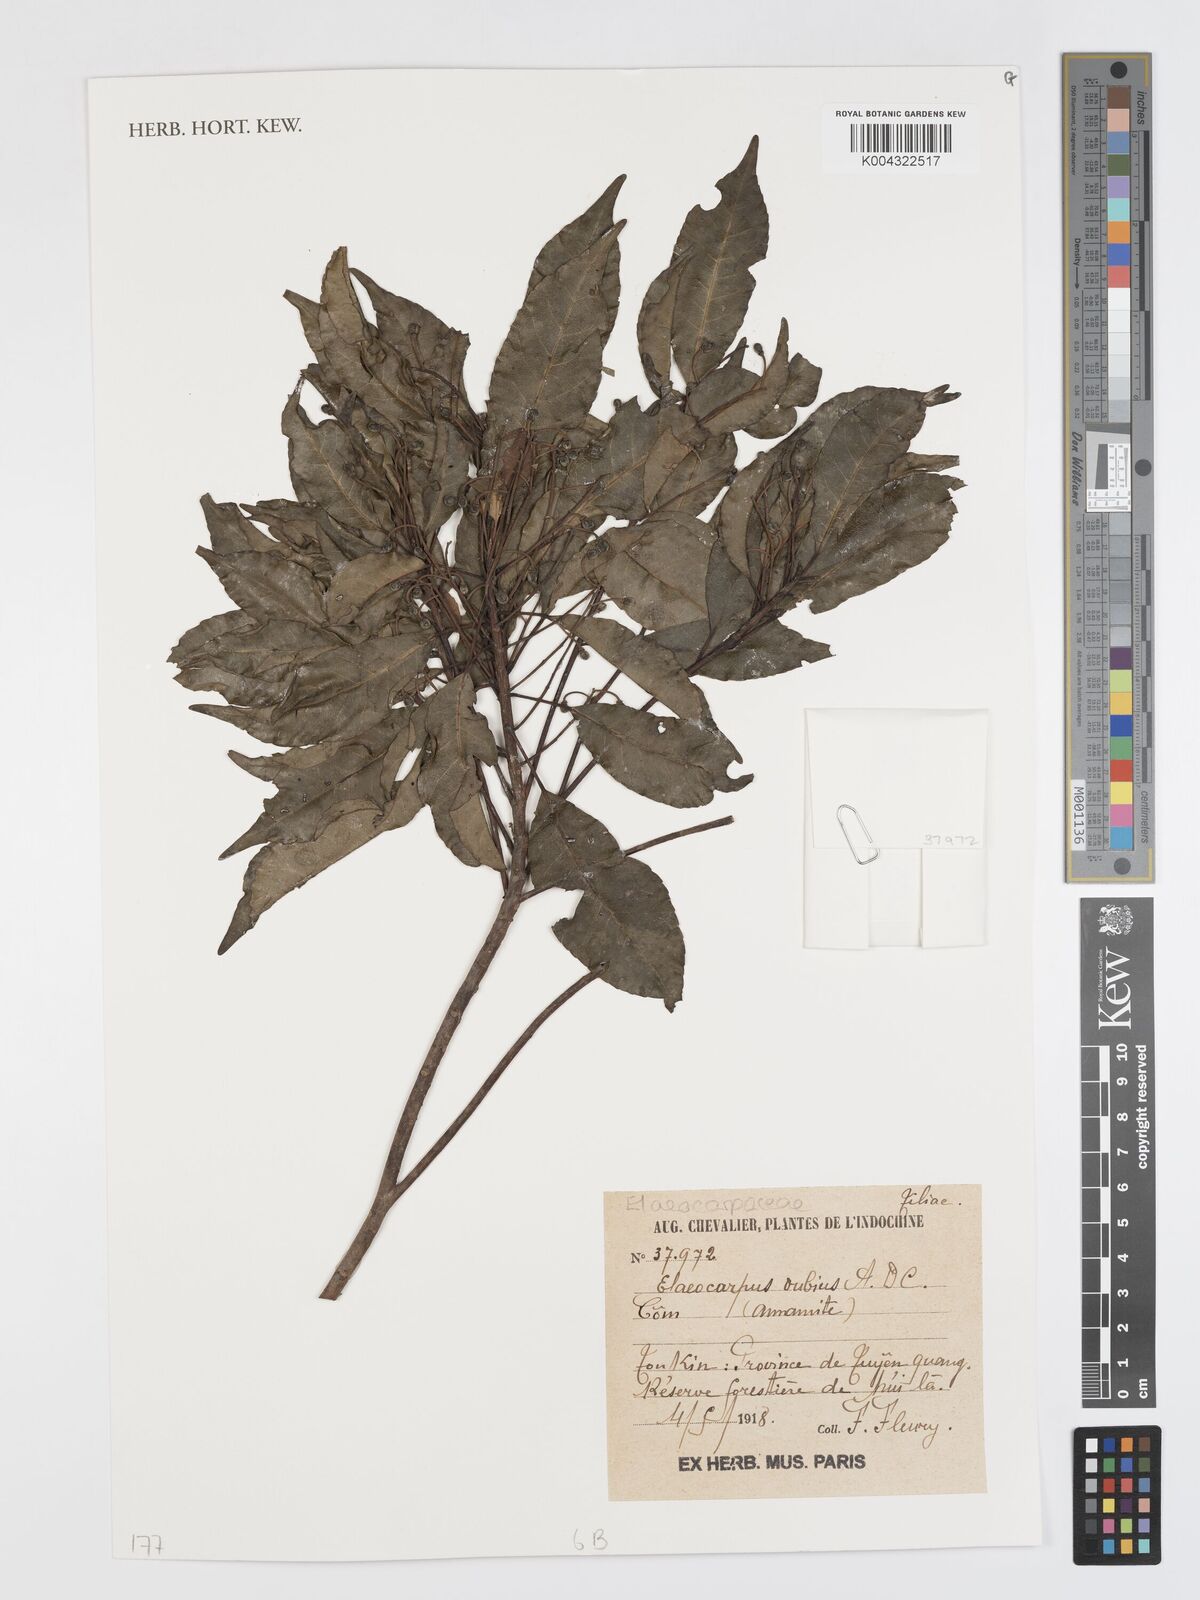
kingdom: Plantae
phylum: Tracheophyta
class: Magnoliopsida
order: Oxalidales
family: Elaeocarpaceae
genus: Elaeocarpus
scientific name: Elaeocarpus dubius
